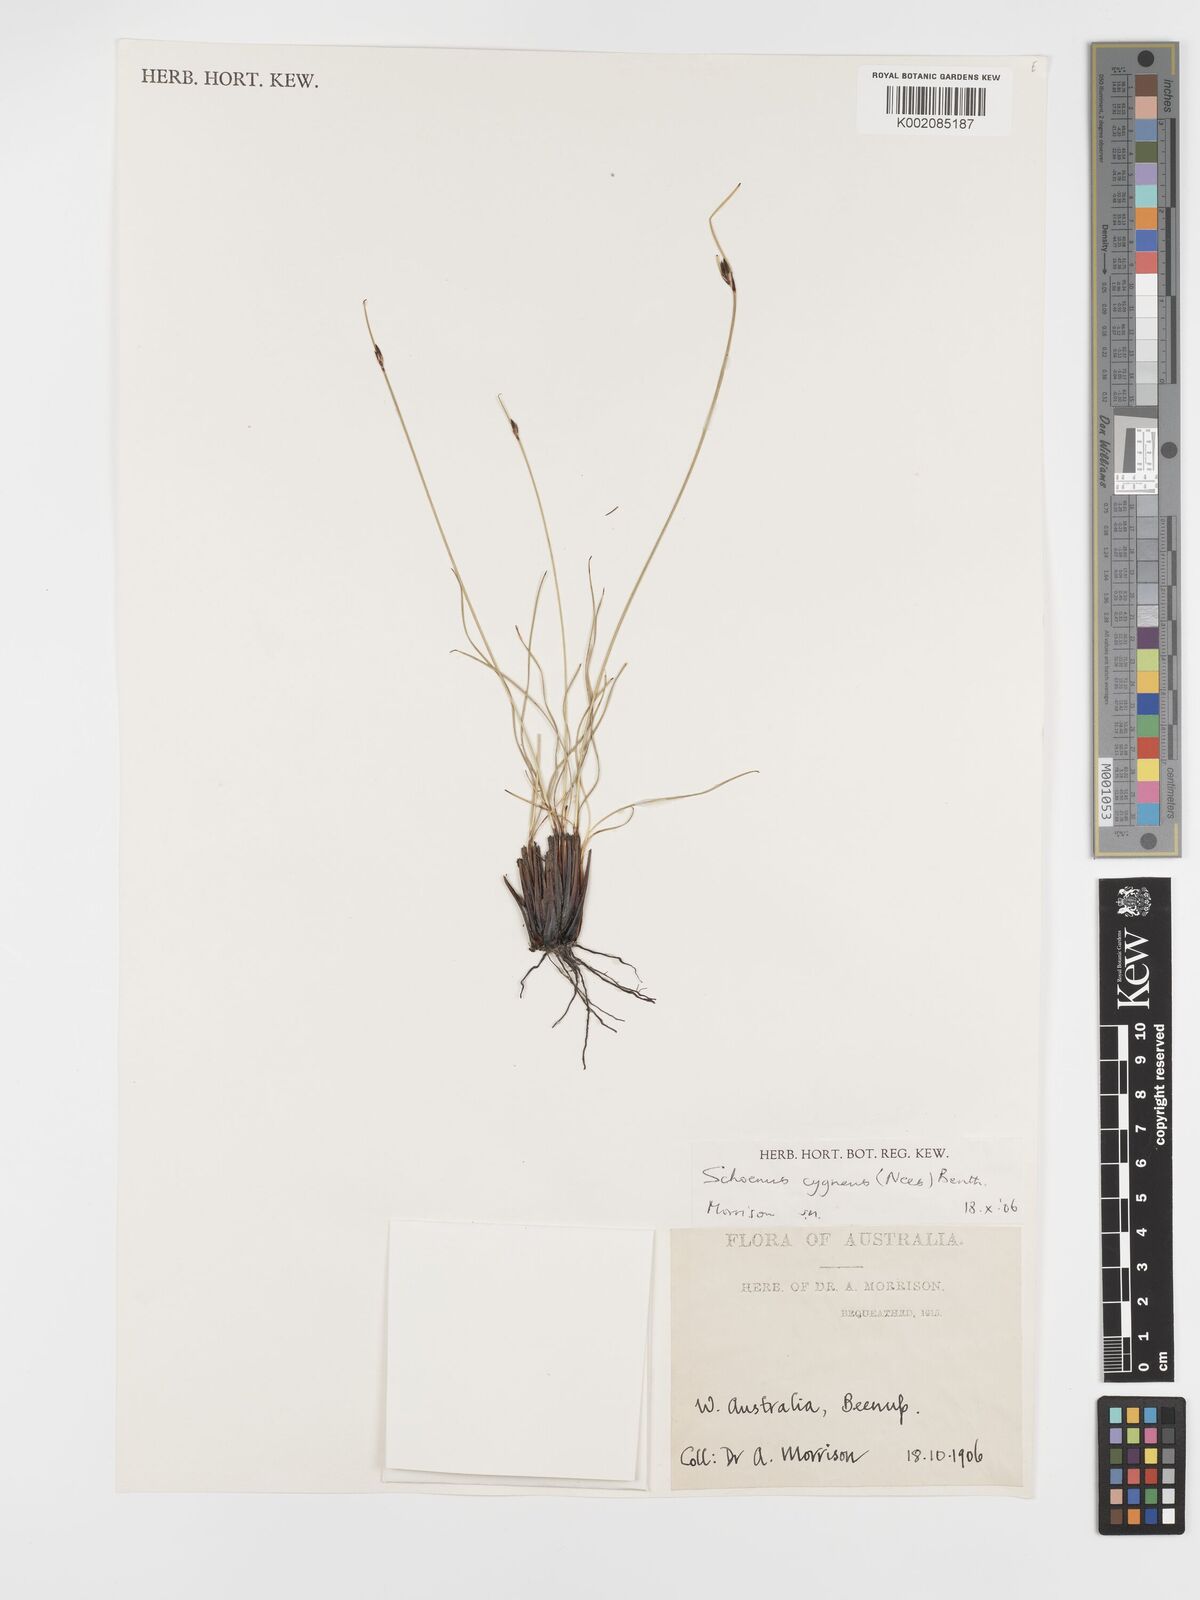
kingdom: Plantae
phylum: Tracheophyta
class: Liliopsida
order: Poales
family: Cyperaceae
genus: Schoenus
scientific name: Schoenus cygneus
